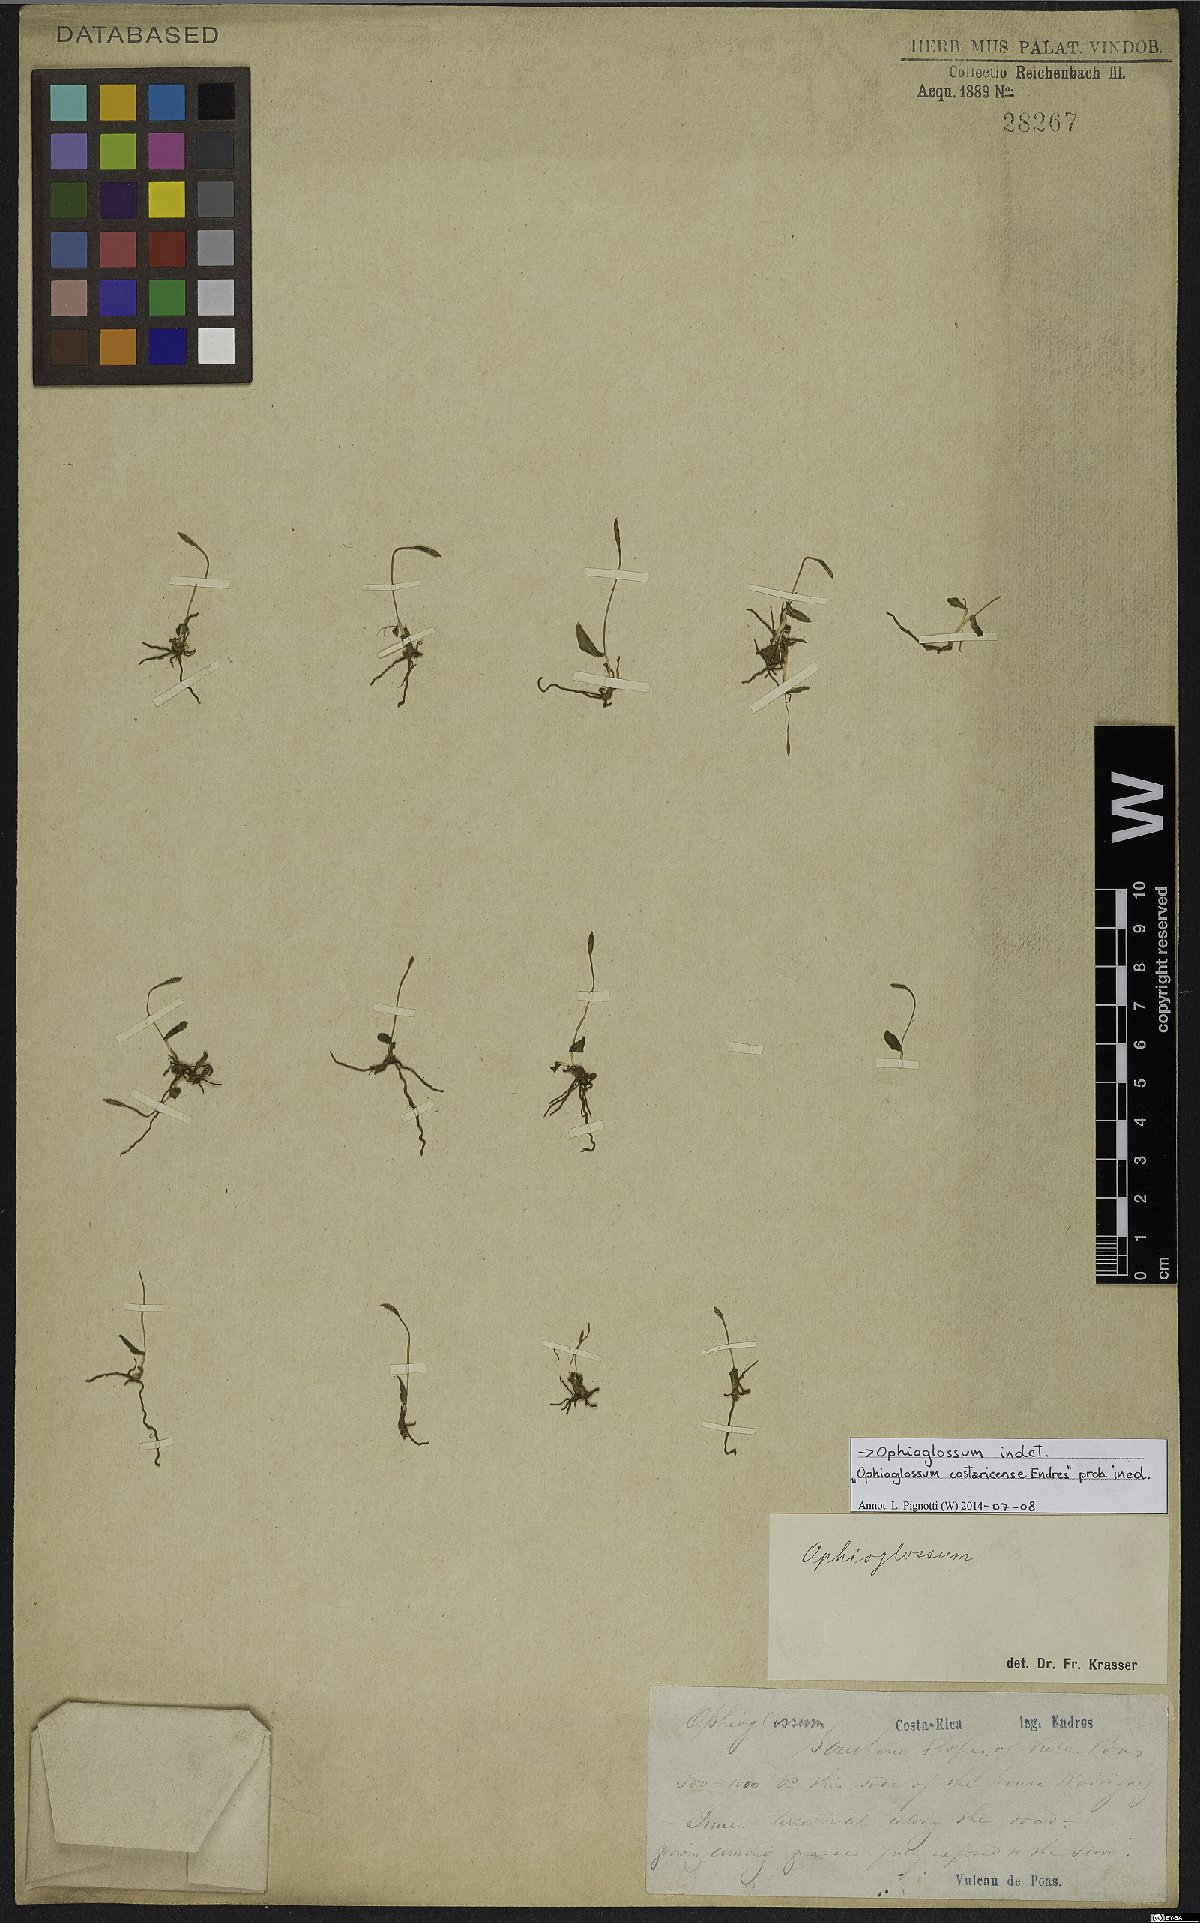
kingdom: Plantae
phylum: Tracheophyta
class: Polypodiopsida
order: Ophioglossales
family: Ophioglossaceae
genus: Ophioglossum
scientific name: Ophioglossum
